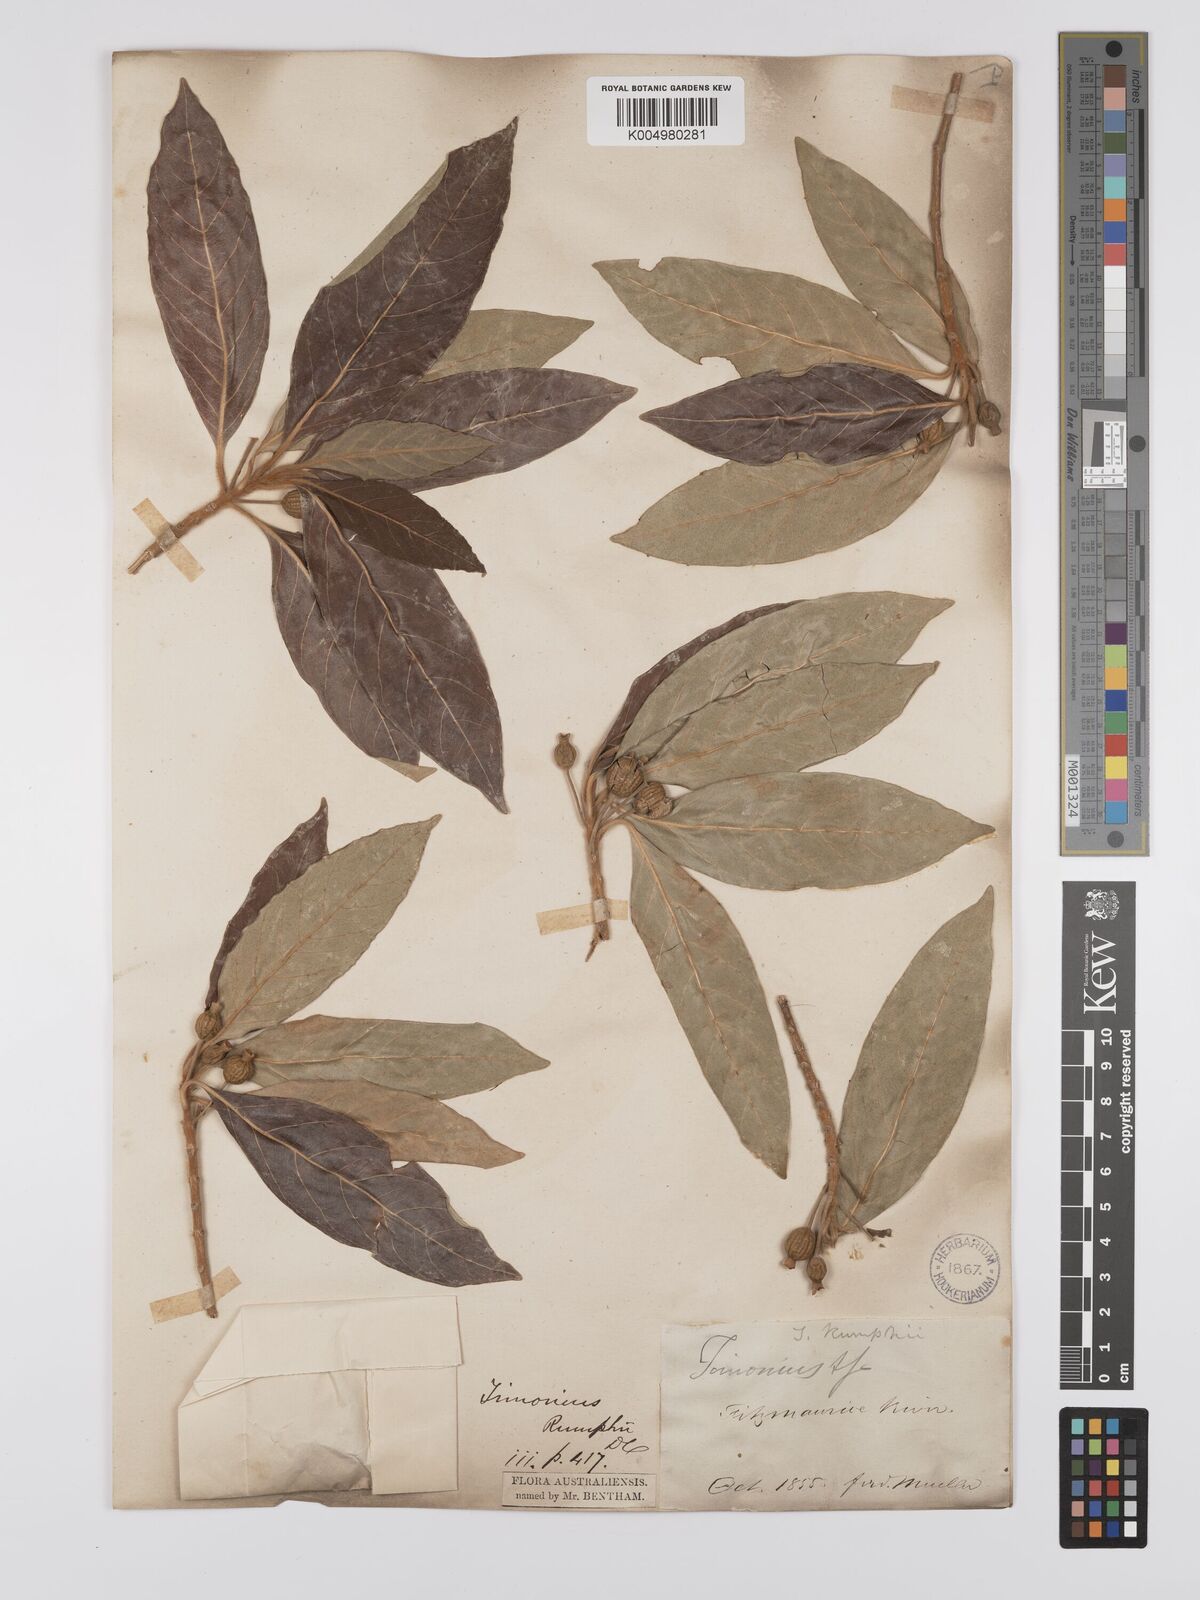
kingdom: Plantae
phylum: Tracheophyta
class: Magnoliopsida
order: Gentianales
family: Rubiaceae
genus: Timonius
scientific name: Timonius timon
